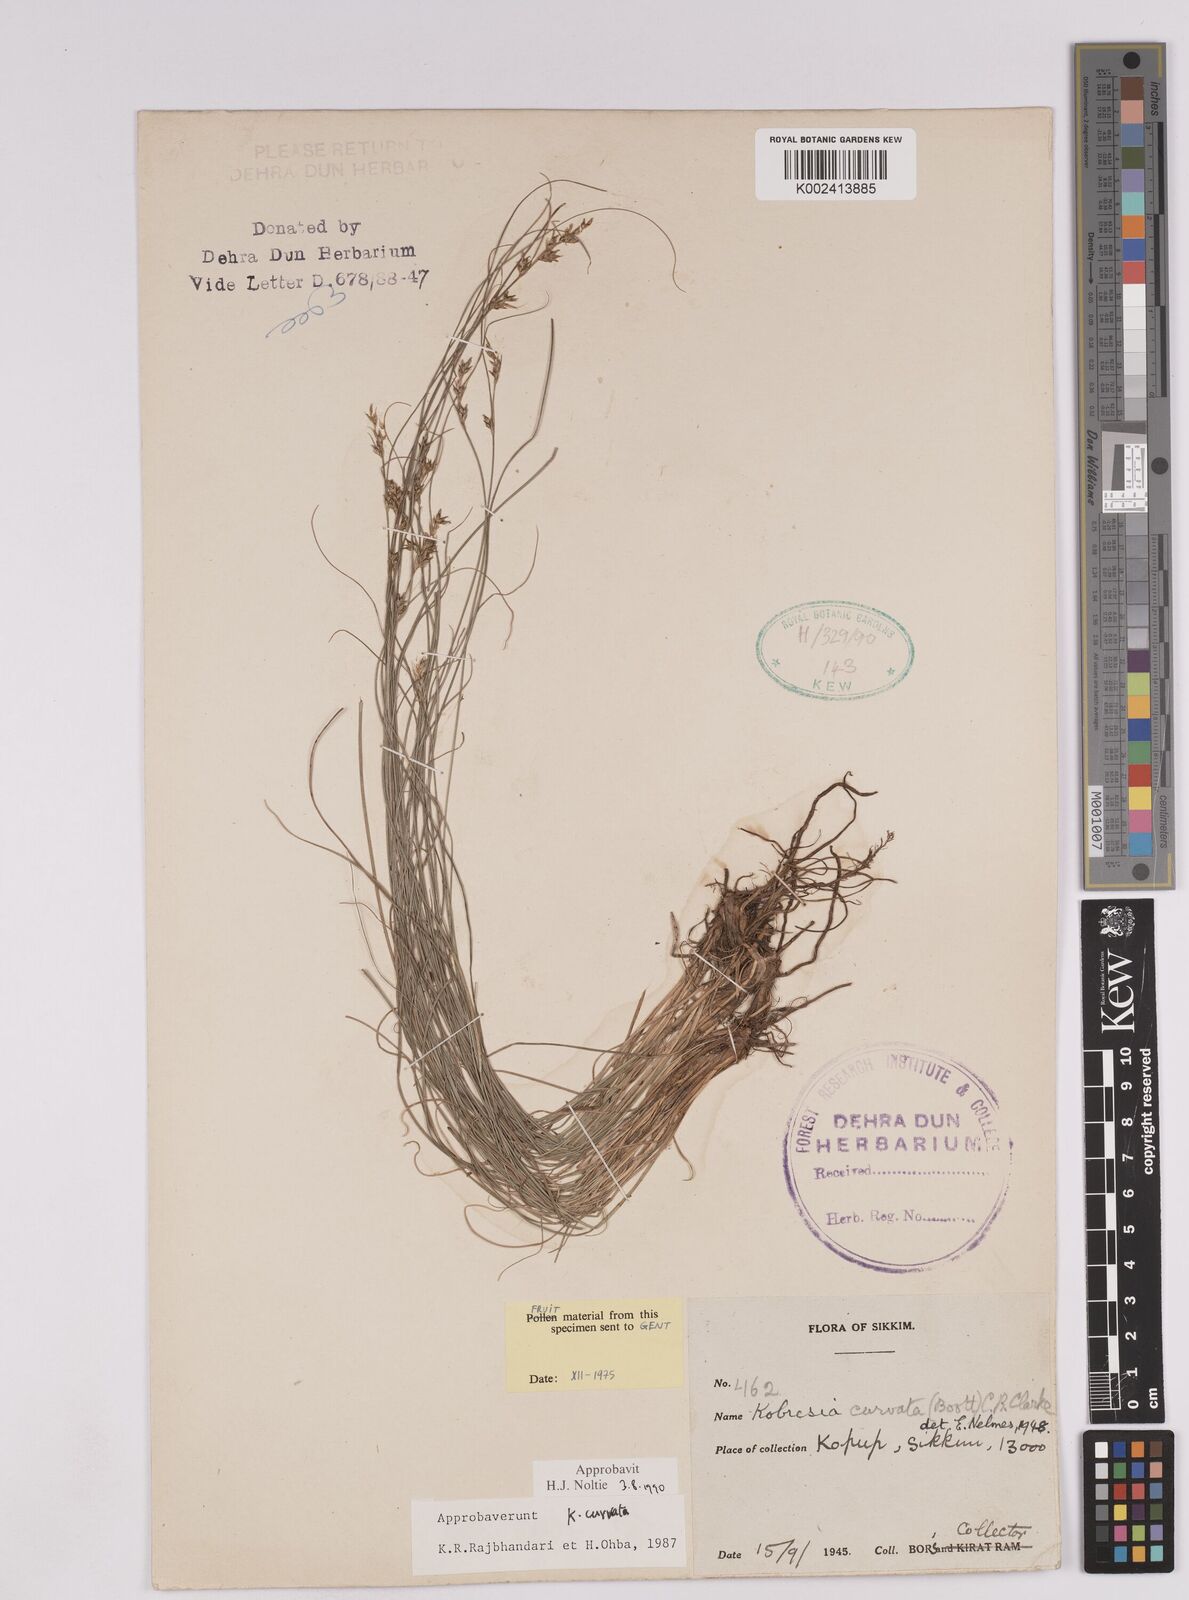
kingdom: Plantae
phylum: Tracheophyta
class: Liliopsida
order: Poales
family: Cyperaceae
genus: Carex
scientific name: Carex bonatiana
